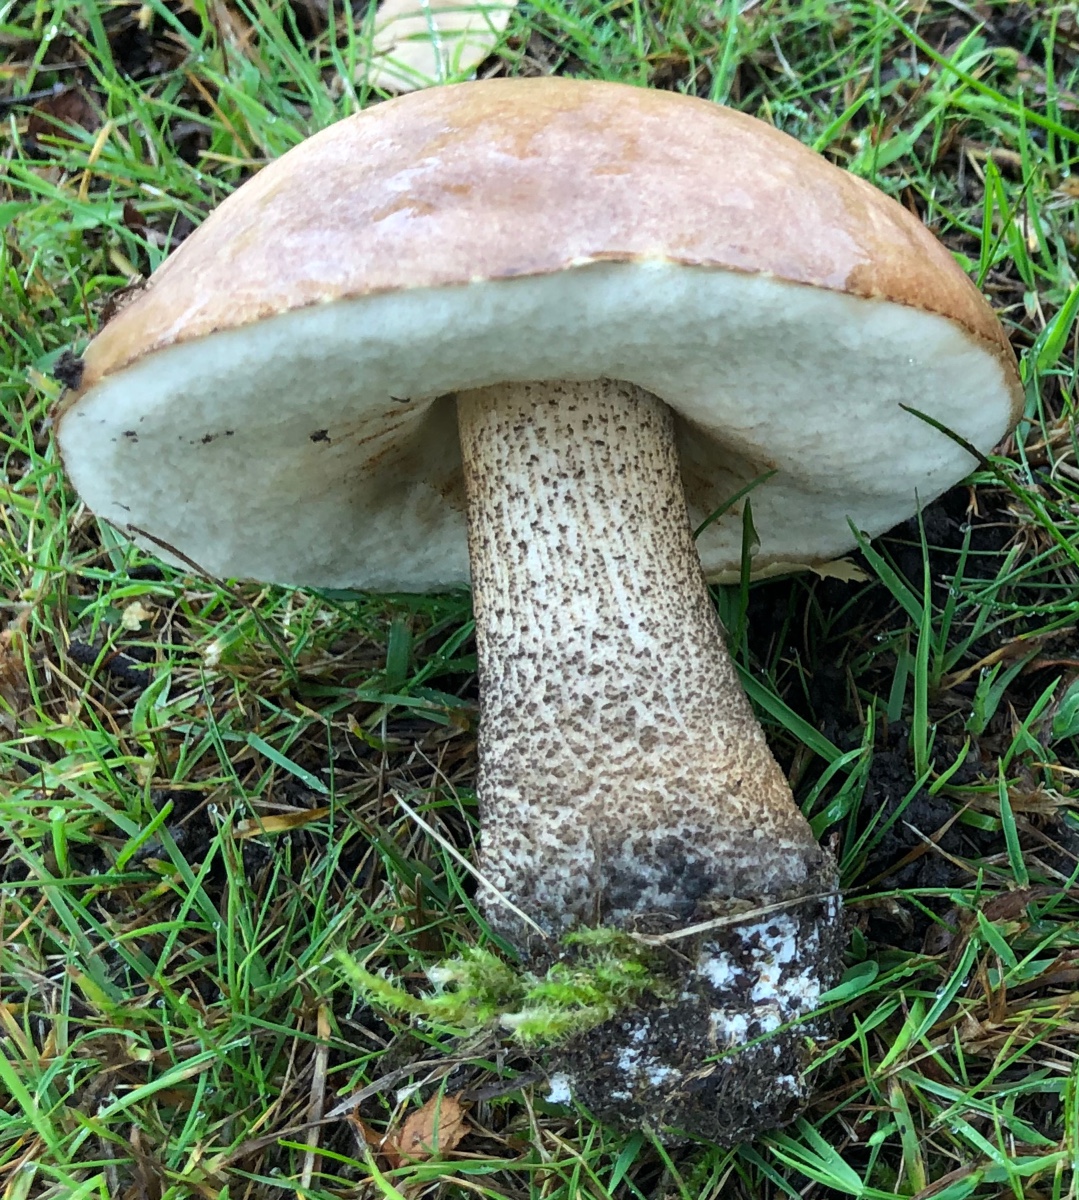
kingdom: Fungi
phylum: Basidiomycota
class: Agaricomycetes
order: Boletales
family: Boletaceae
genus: Leccinum
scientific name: Leccinum scabrum
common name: brun skælrørhat
